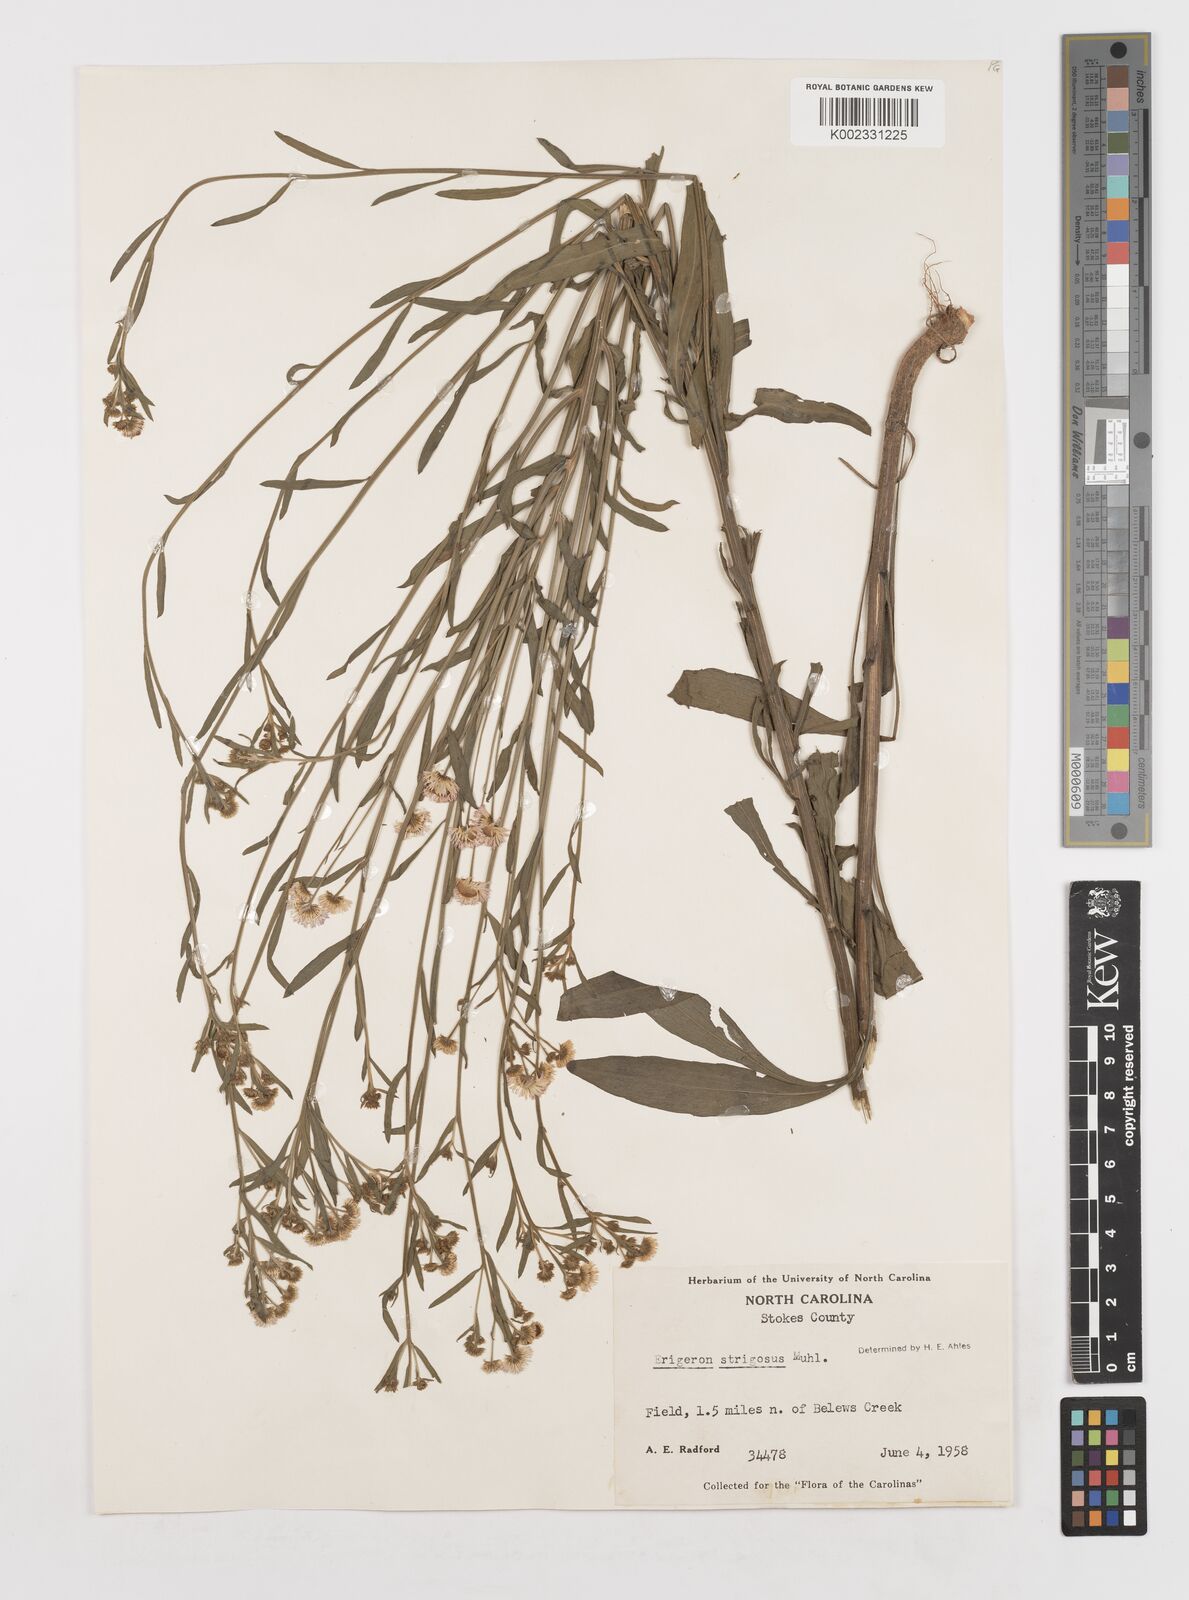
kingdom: Plantae
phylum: Tracheophyta
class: Magnoliopsida
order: Asterales
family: Asteraceae
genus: Erigeron
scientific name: Erigeron strigosus
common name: Common eastern fleabane
